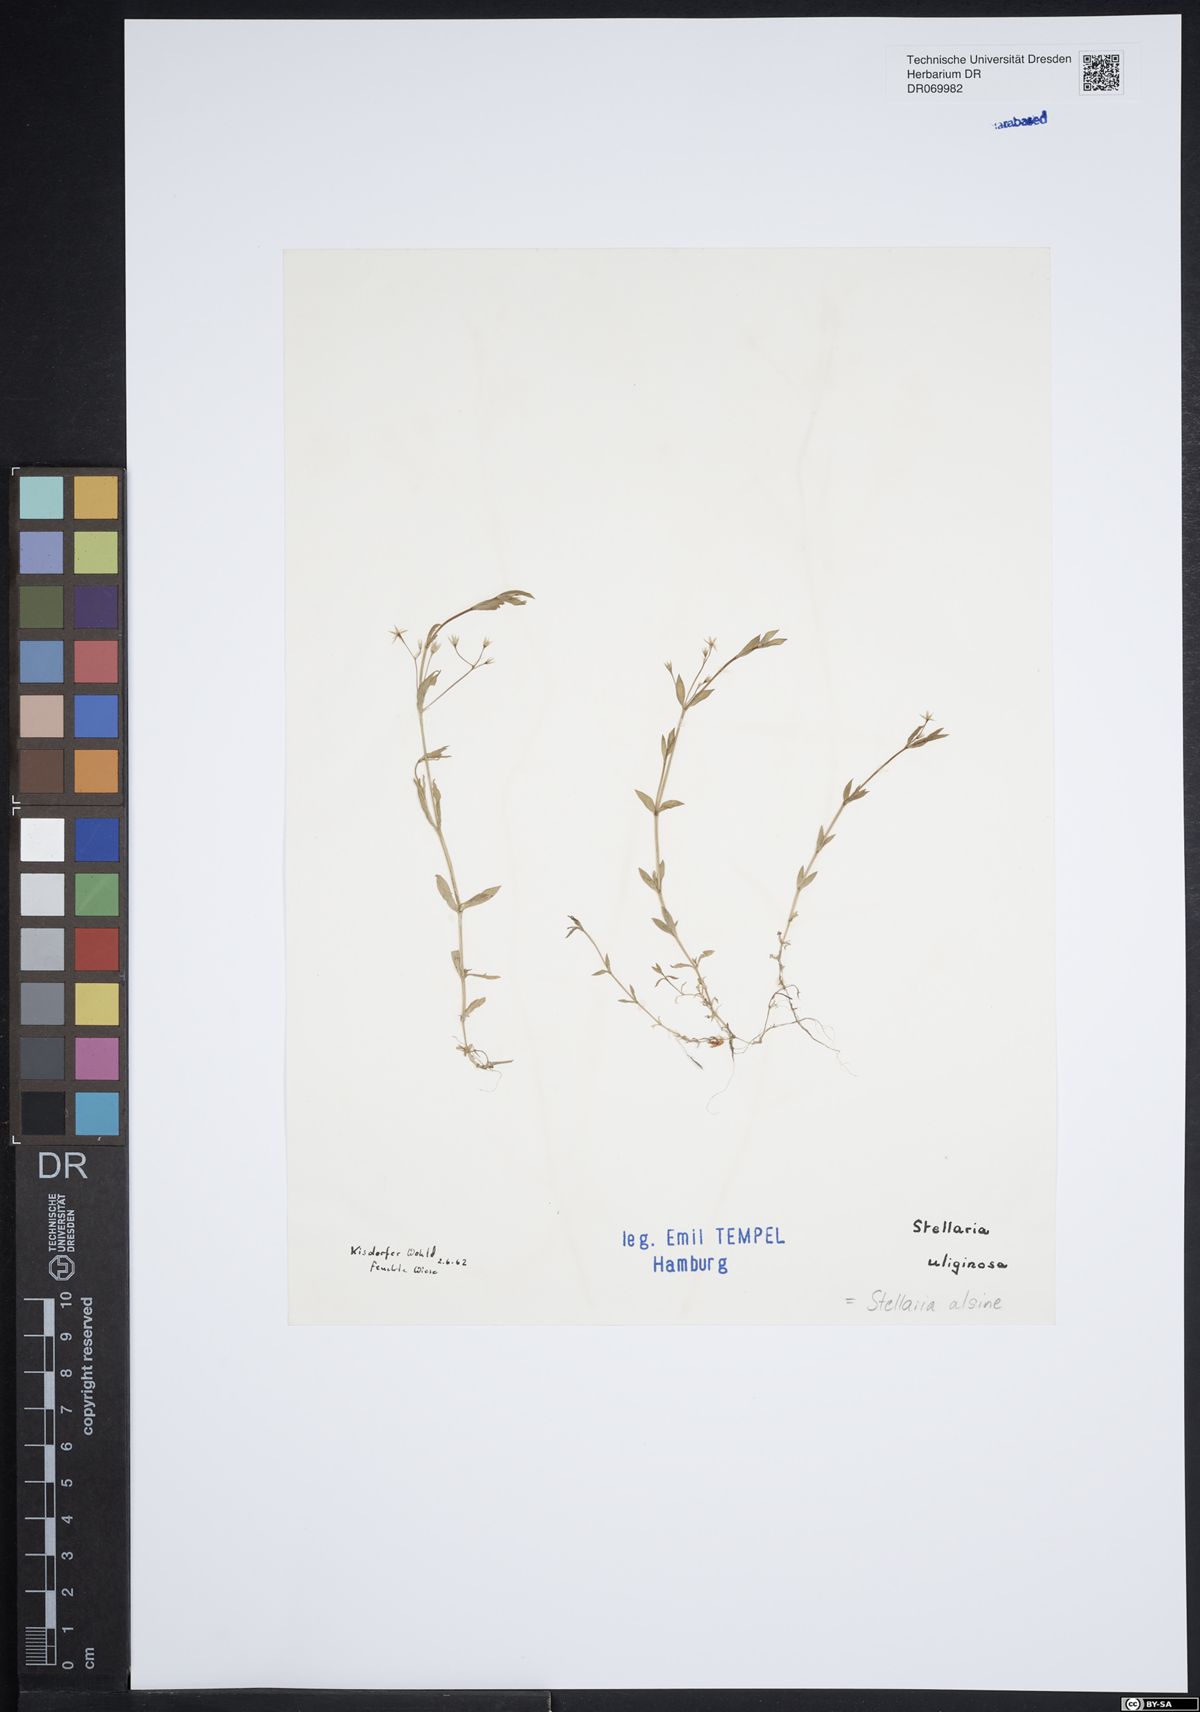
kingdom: Plantae
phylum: Tracheophyta
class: Magnoliopsida
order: Caryophyllales
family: Caryophyllaceae
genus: Stellaria
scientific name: Stellaria alsine
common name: Bog stitchwort
